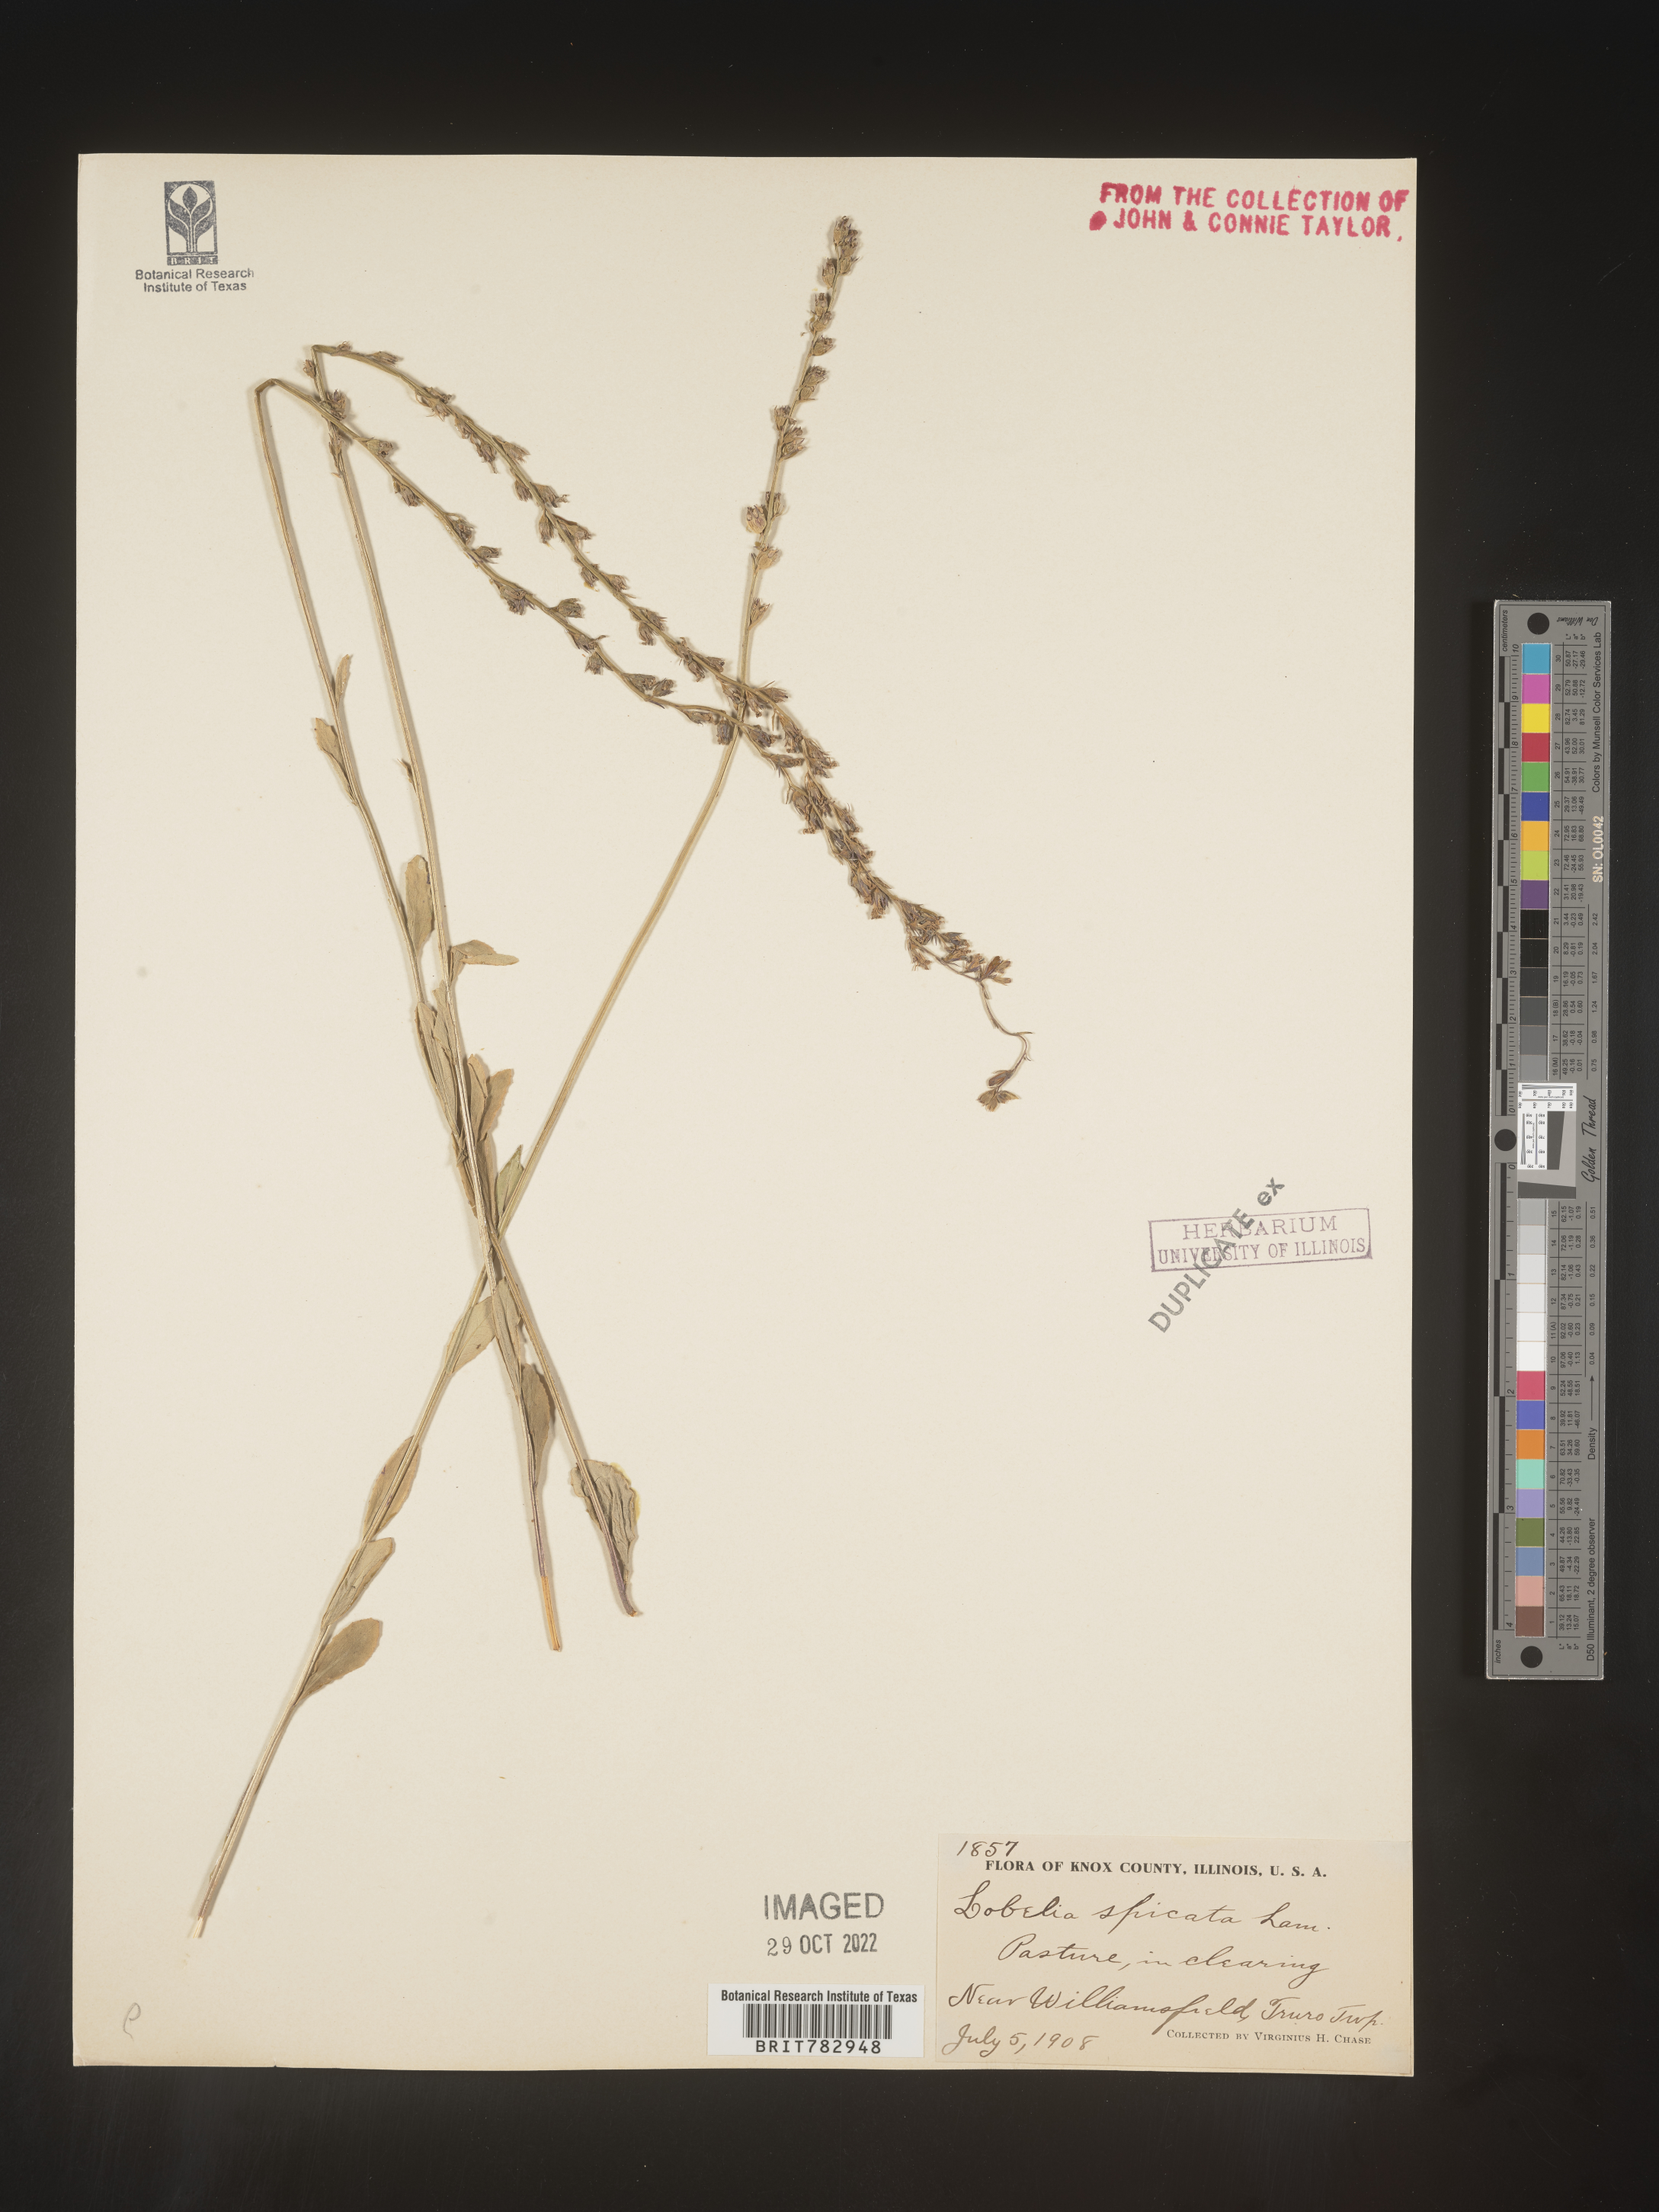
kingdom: Plantae
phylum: Tracheophyta
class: Magnoliopsida
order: Asterales
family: Campanulaceae
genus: Lobelia
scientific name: Lobelia spicata
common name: Pale-spike lobelia
